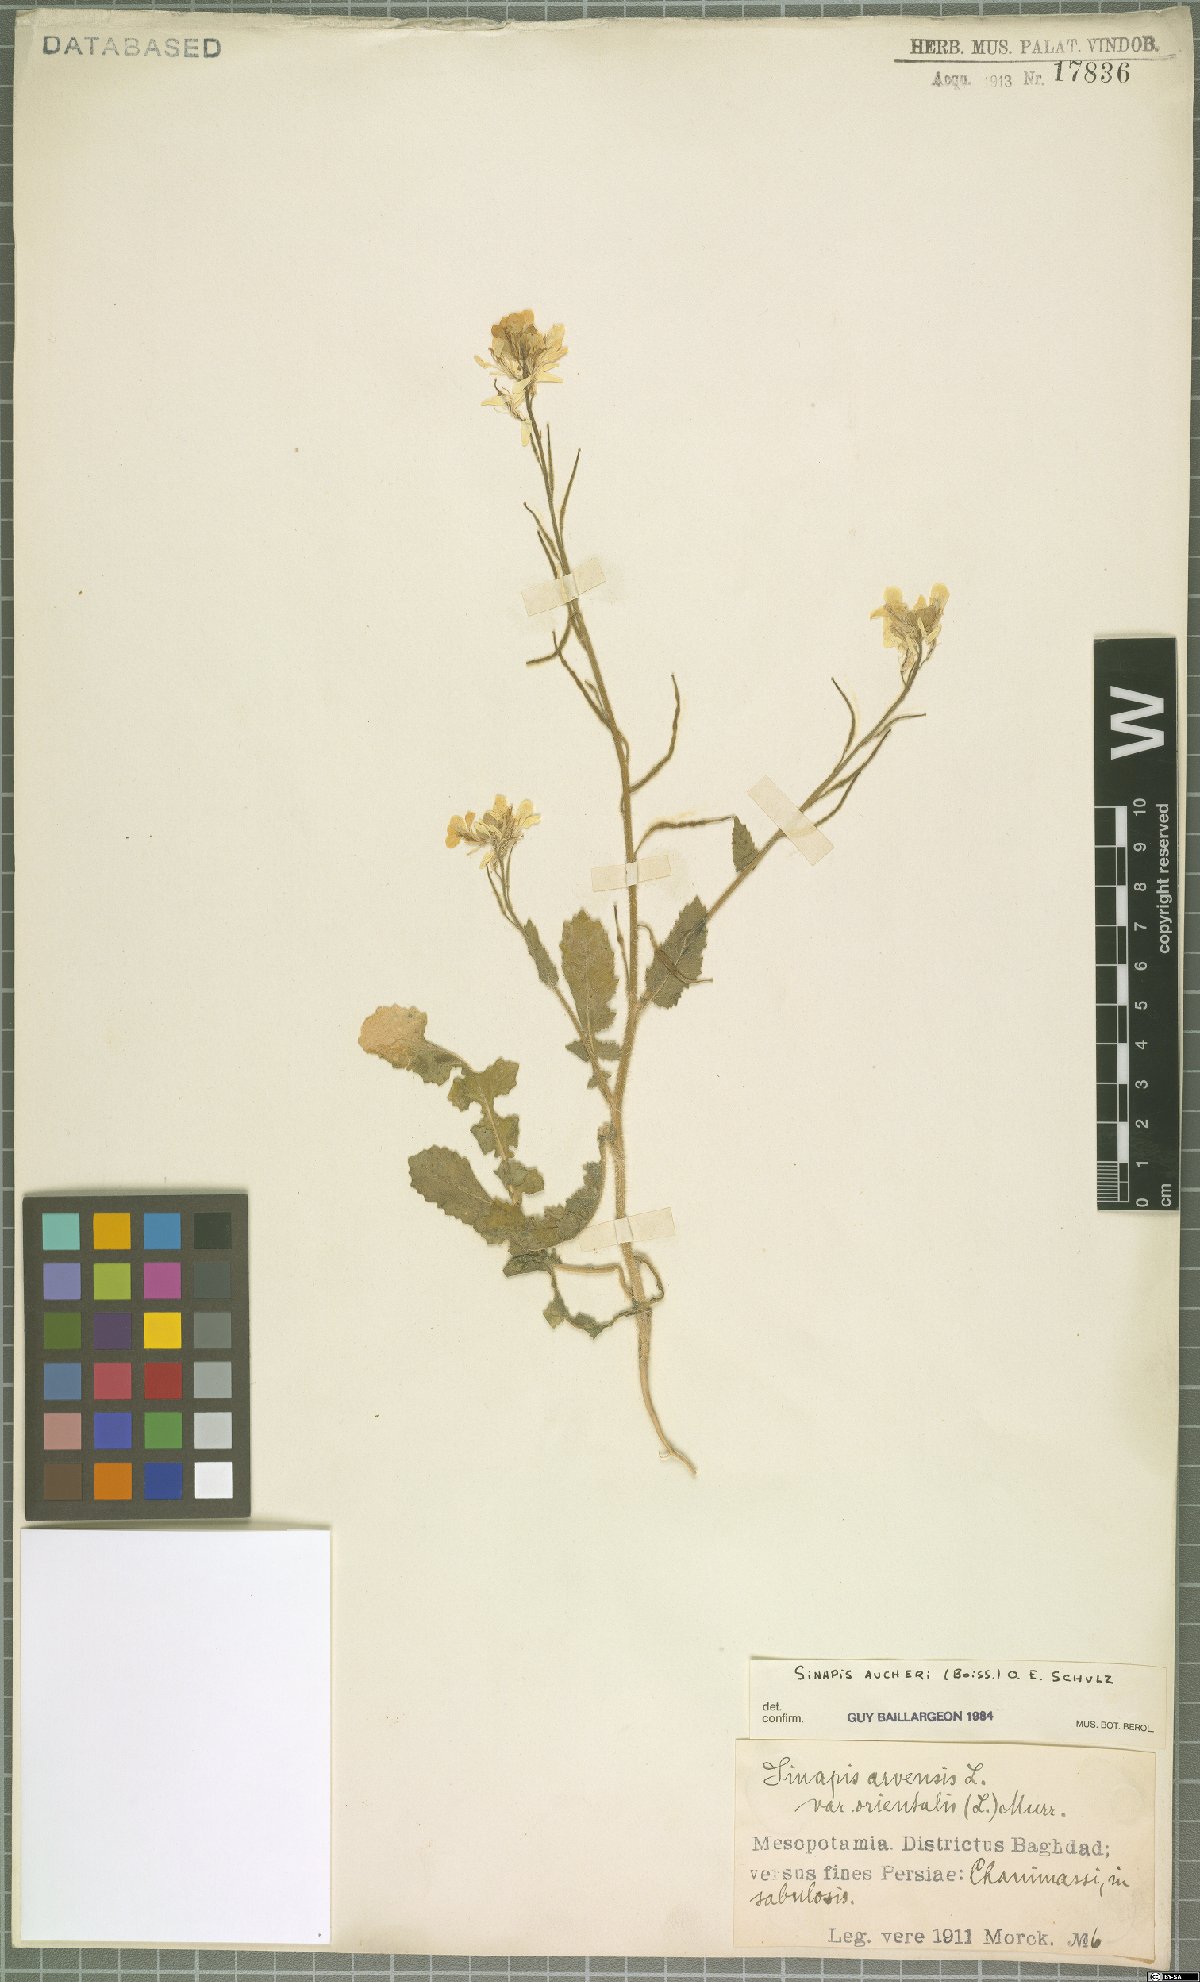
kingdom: Plantae
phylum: Tracheophyta
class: Magnoliopsida
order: Brassicales
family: Brassicaceae
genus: Brassica
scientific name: Brassica aucheri
